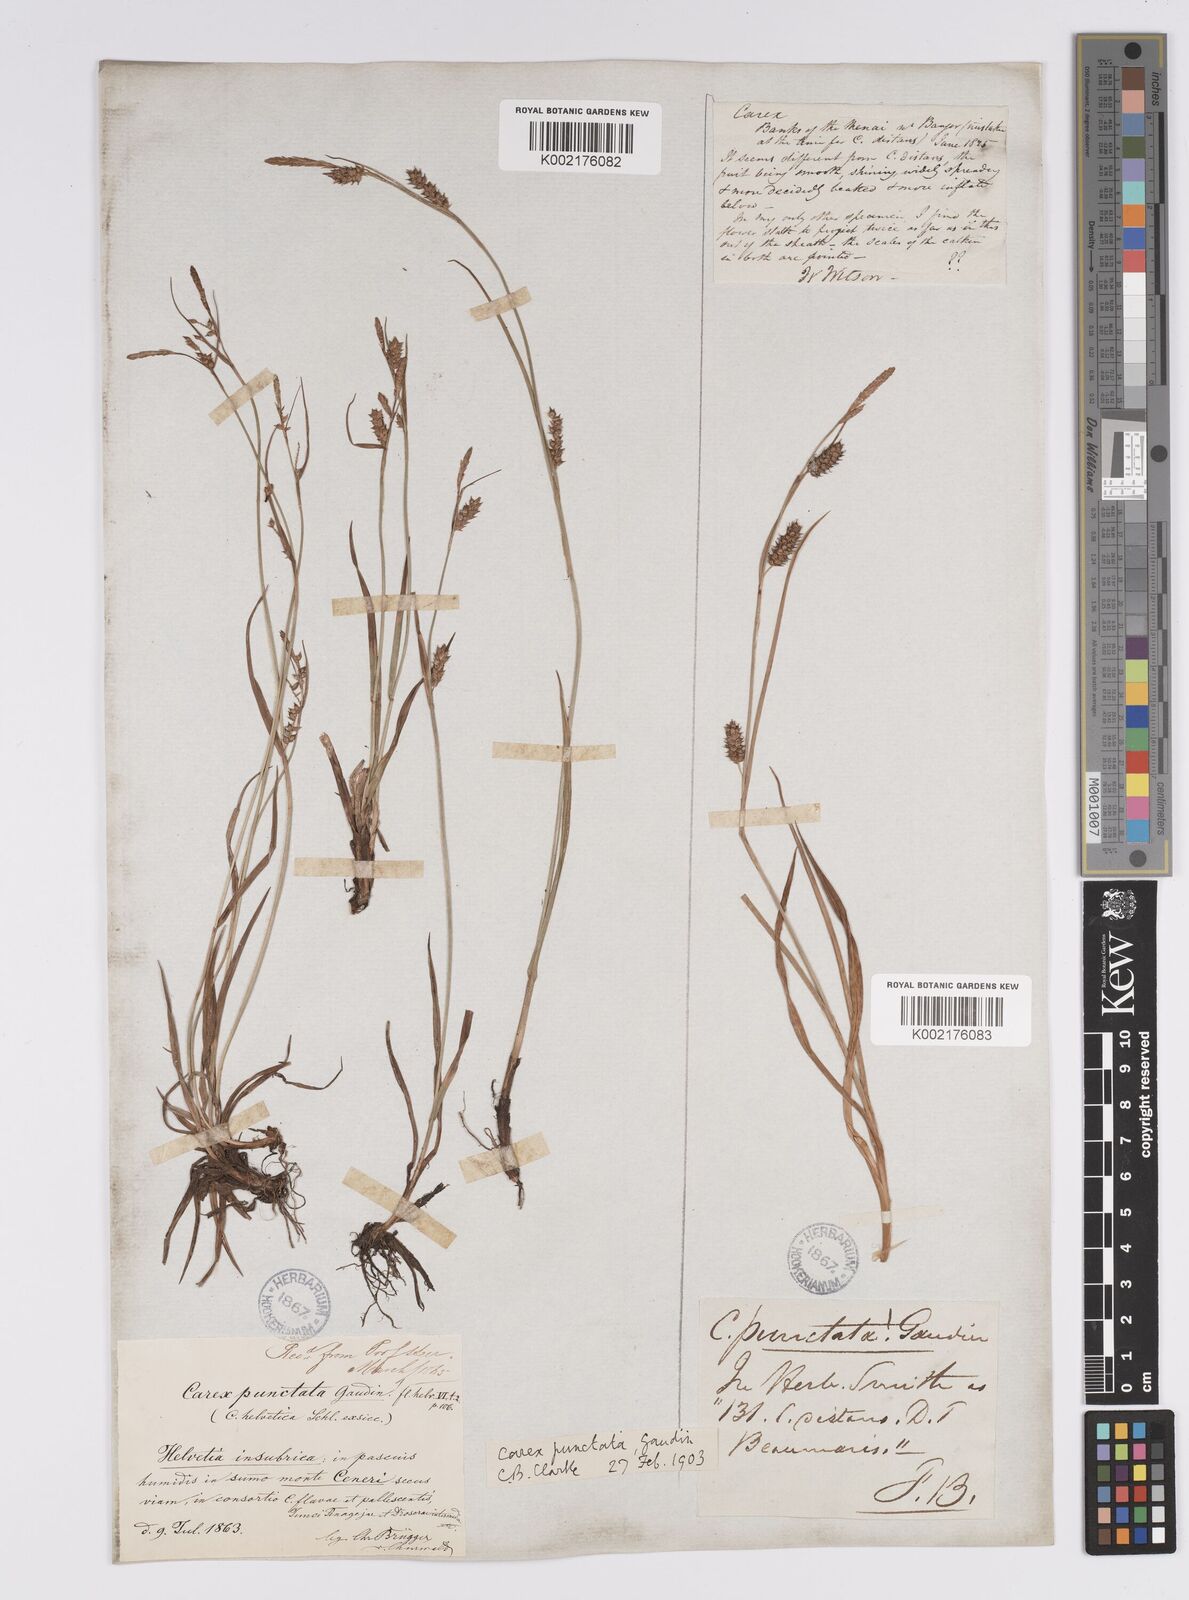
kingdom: Plantae
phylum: Tracheophyta
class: Liliopsida
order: Poales
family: Cyperaceae
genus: Carex
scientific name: Carex punctata
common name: Dotted sedge
